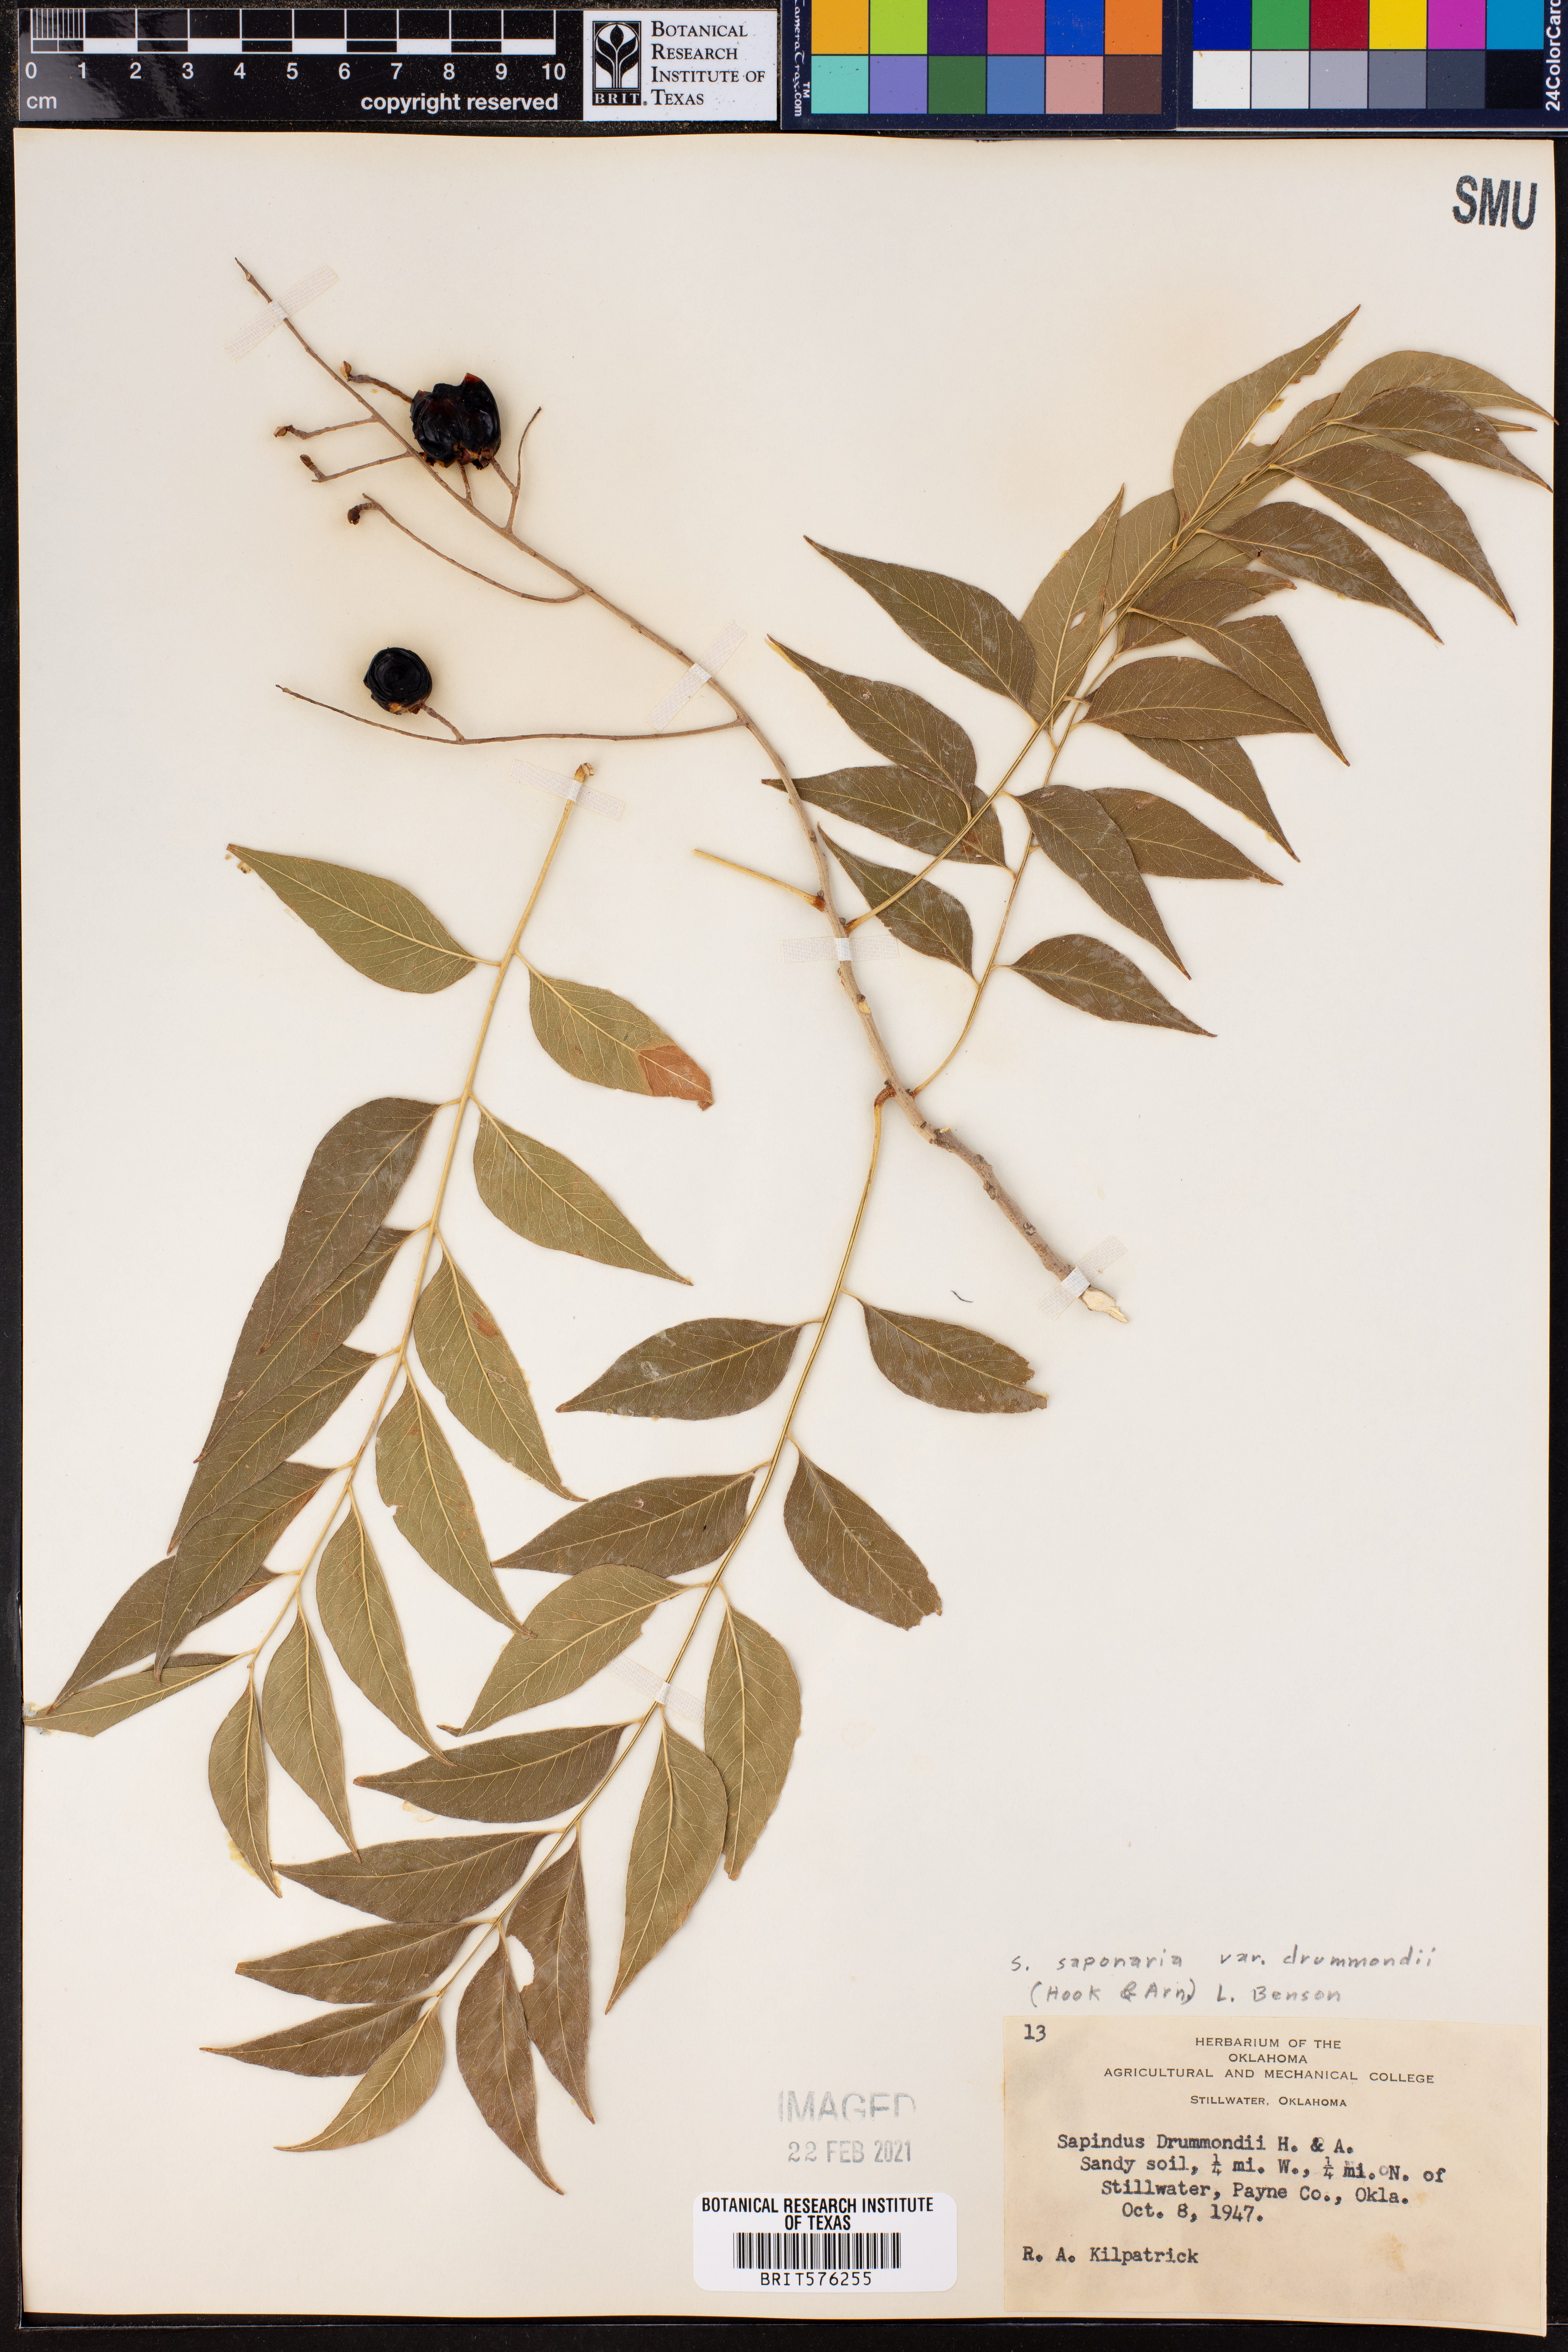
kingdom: Plantae
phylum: Tracheophyta
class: Magnoliopsida
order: Sapindales
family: Sapindaceae
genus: Sapindus
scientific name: Sapindus drummondii
